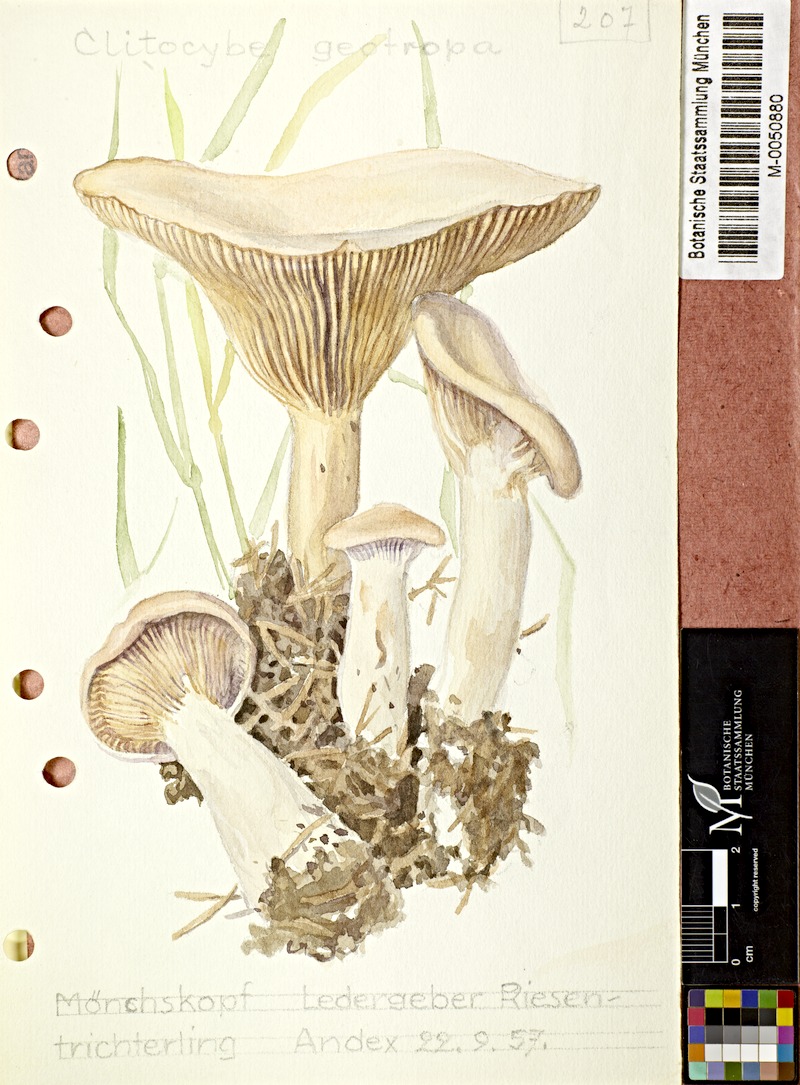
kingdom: Fungi
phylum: Basidiomycota
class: Agaricomycetes
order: Agaricales
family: Tricholomataceae
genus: Infundibulicybe
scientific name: Infundibulicybe geotropa
